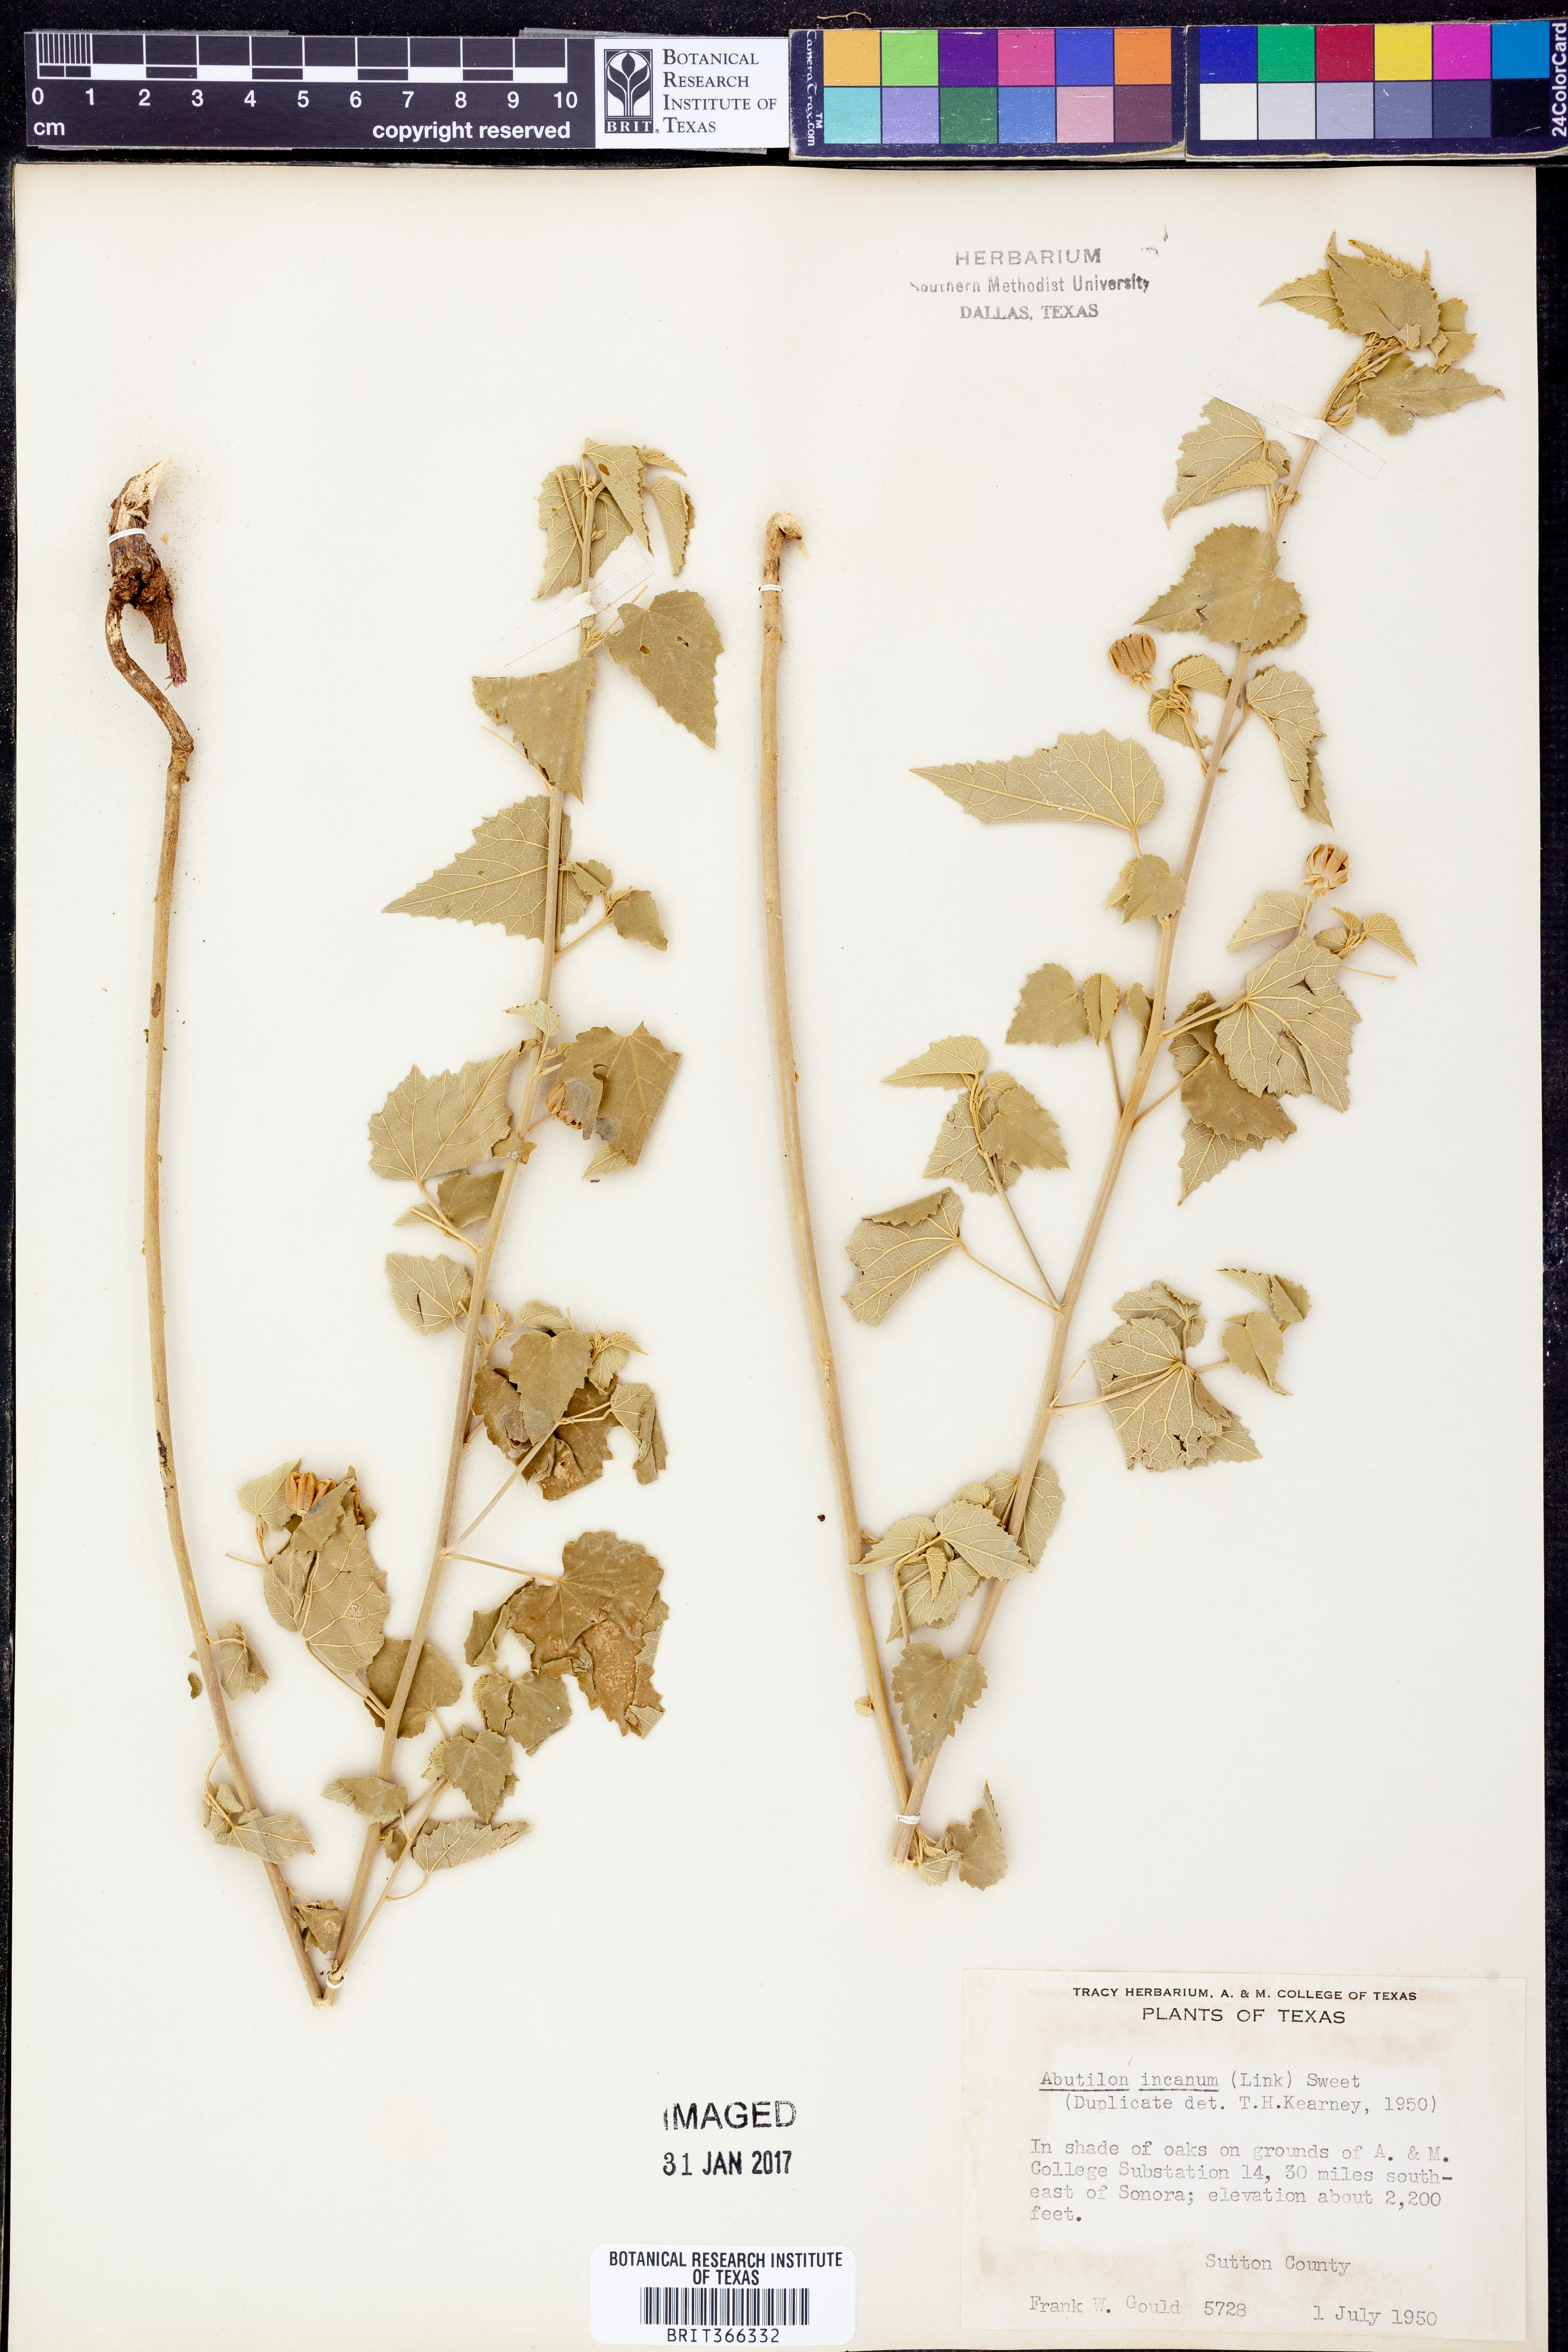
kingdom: Plantae
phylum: Tracheophyta
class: Magnoliopsida
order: Malvales
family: Malvaceae
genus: Abutilon
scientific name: Abutilon incanum
